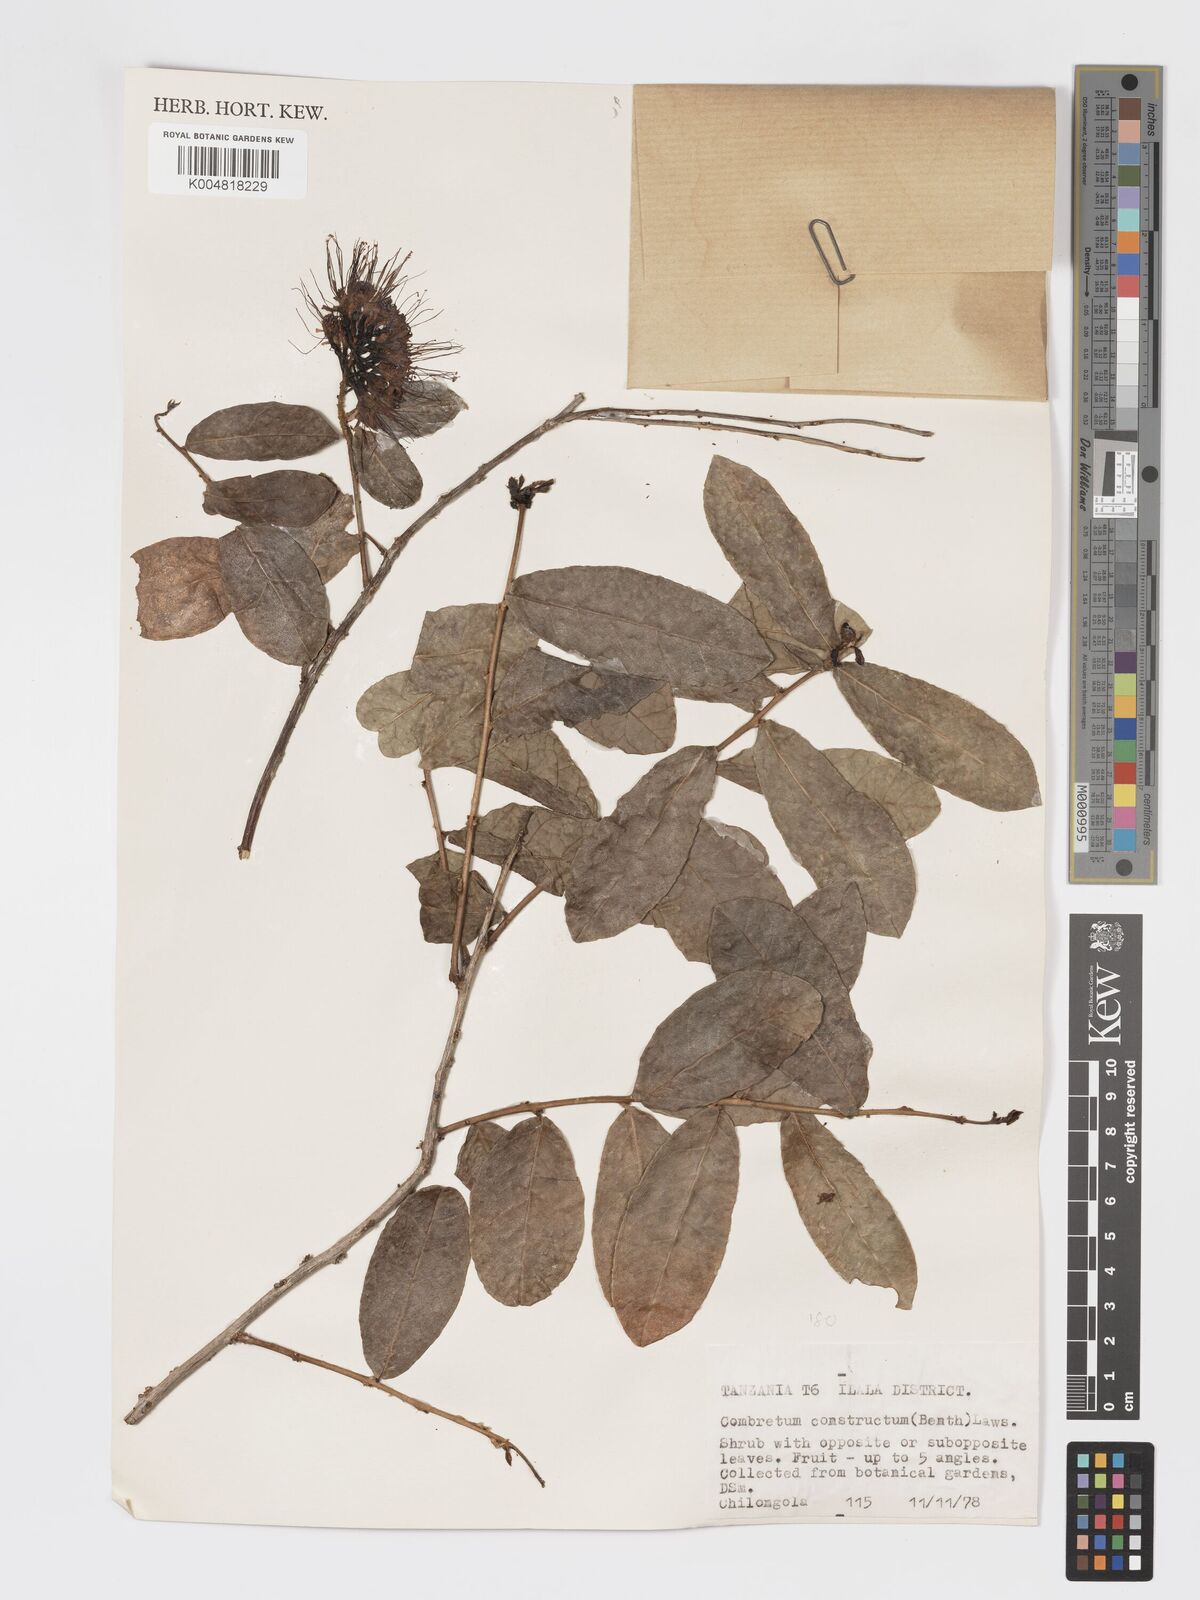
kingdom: Plantae
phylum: Tracheophyta
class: Magnoliopsida
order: Myrtales
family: Combretaceae
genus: Combretum
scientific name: Combretum constrictum
